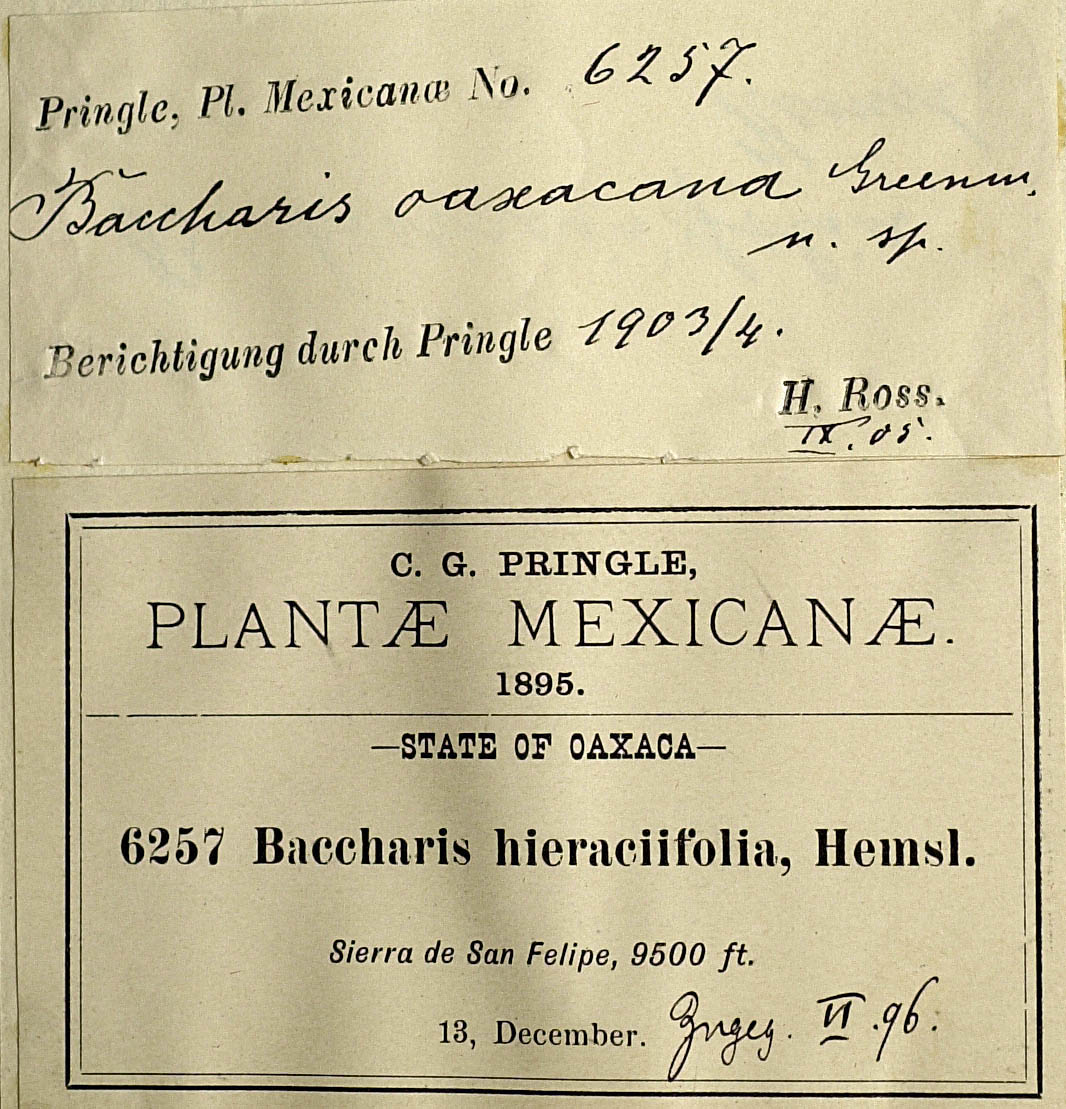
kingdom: Plantae
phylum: Tracheophyta
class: Magnoliopsida
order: Asterales
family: Asteraceae
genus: Archibaccharis
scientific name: Archibaccharis auriculata
